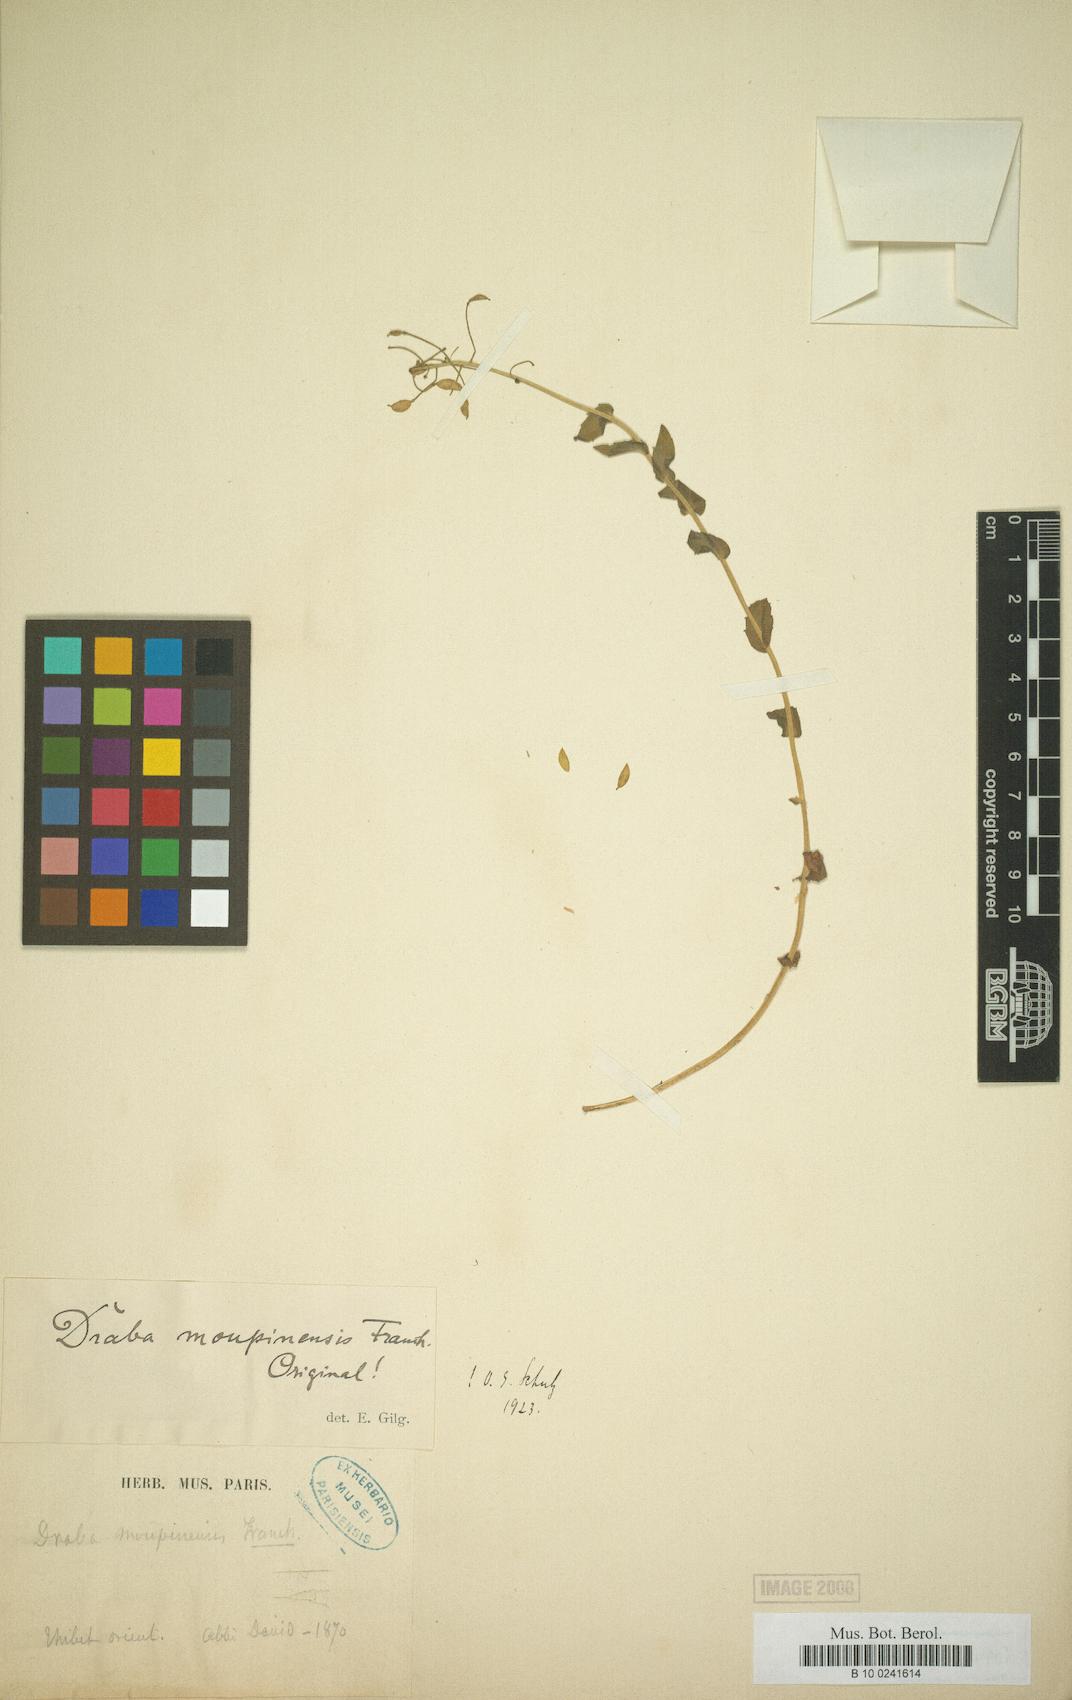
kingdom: Plantae
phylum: Tracheophyta
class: Magnoliopsida
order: Brassicales
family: Brassicaceae
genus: Draba
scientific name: Draba surculosa
